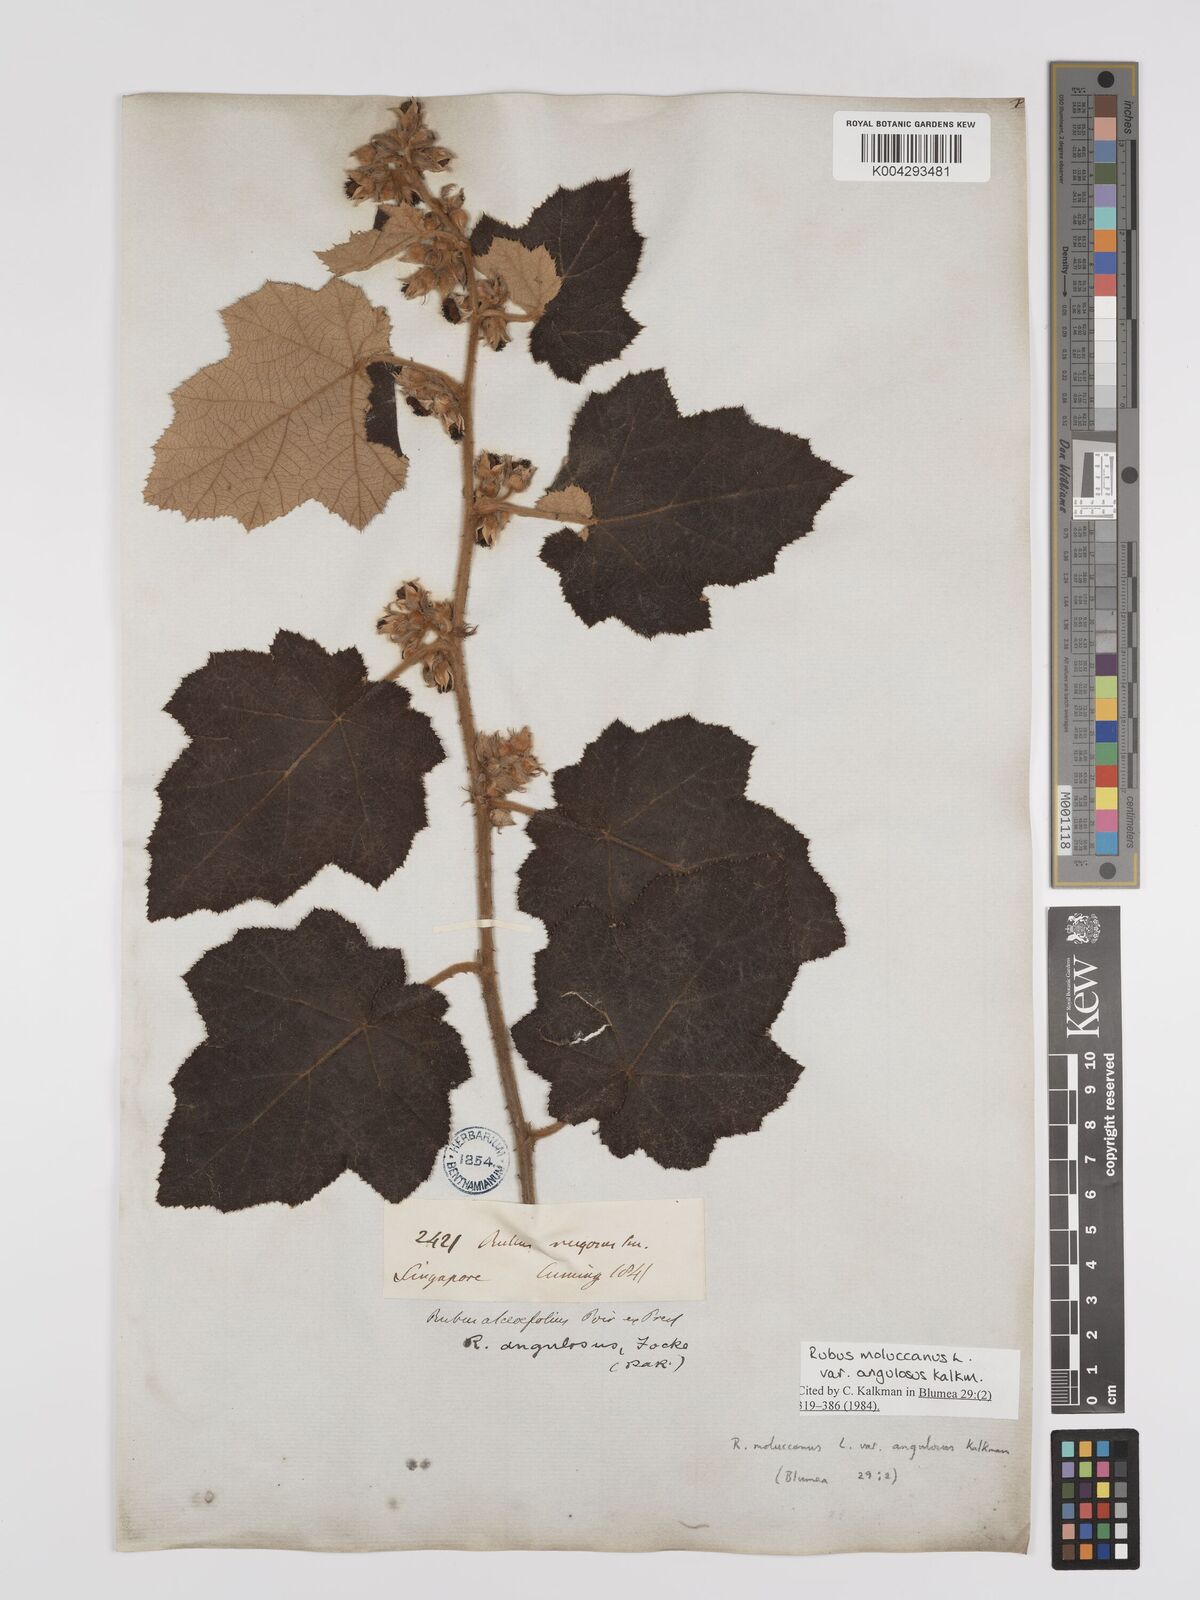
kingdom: Plantae
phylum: Tracheophyta
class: Magnoliopsida
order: Rosales
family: Rosaceae
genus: Rubus
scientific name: Rubus moluccanus
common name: Wild raspberry
